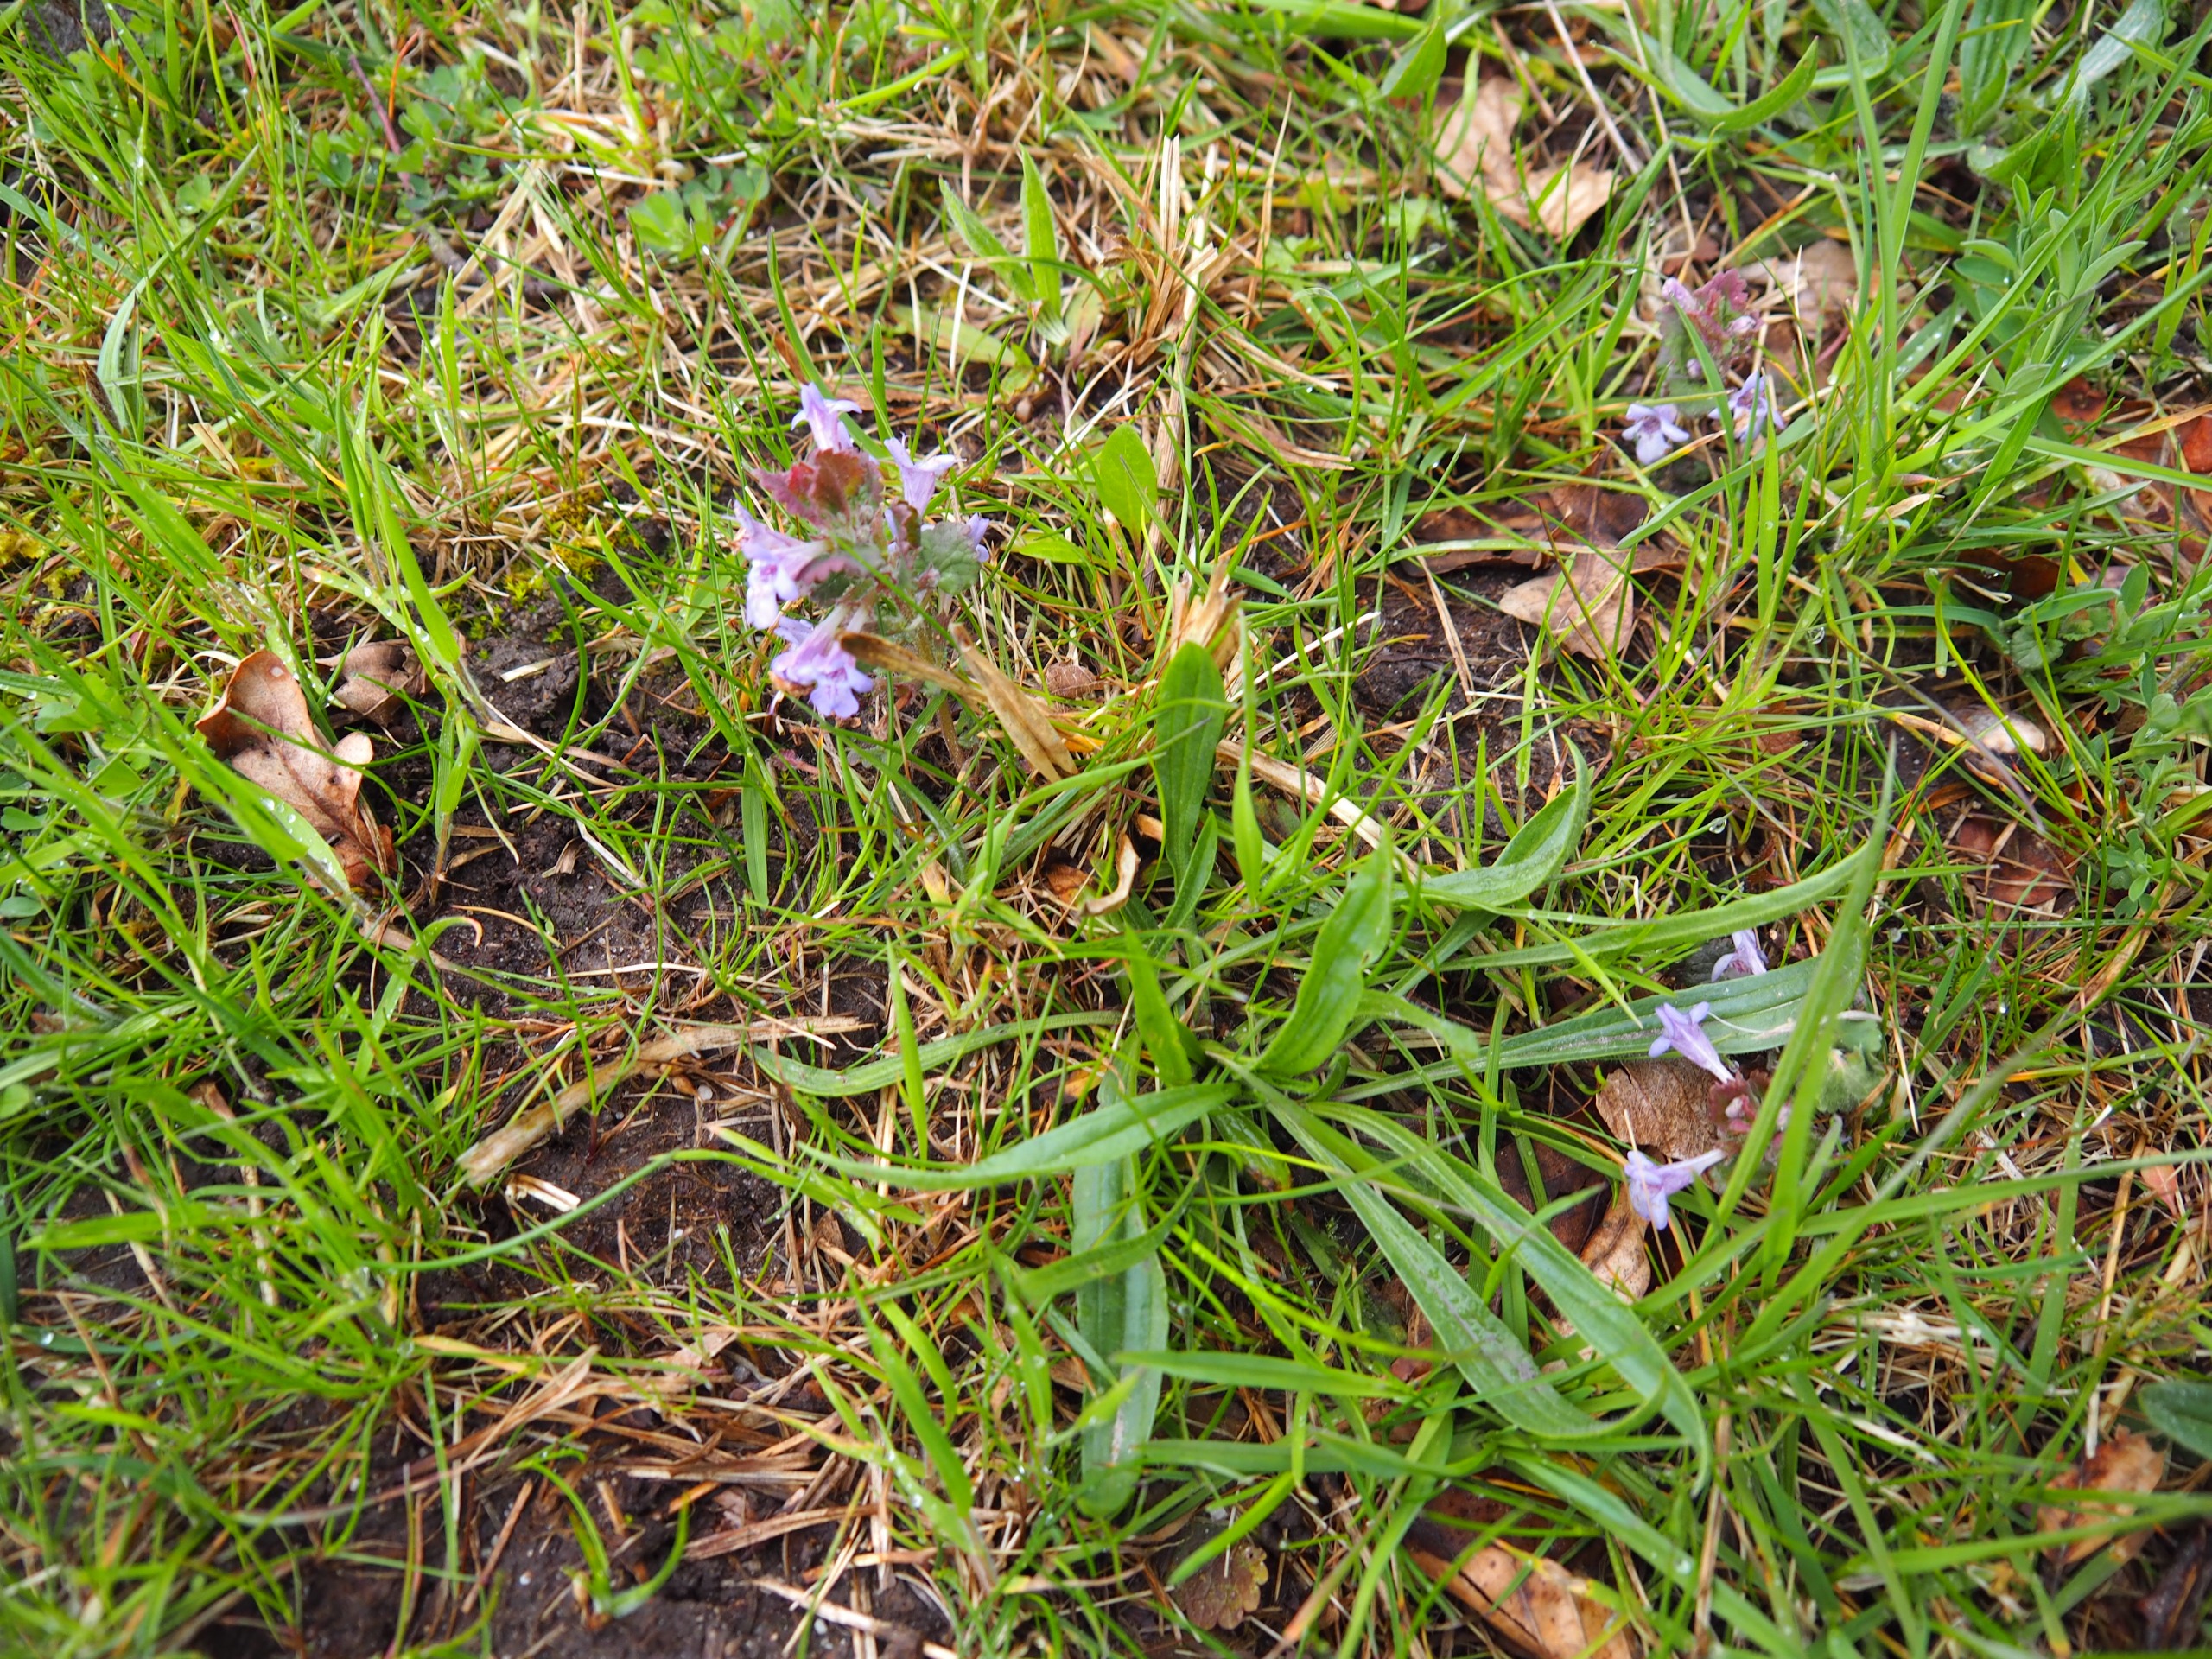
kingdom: Plantae
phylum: Tracheophyta
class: Magnoliopsida
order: Lamiales
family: Lamiaceae
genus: Glechoma
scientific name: Glechoma hederacea
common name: Korsknap
